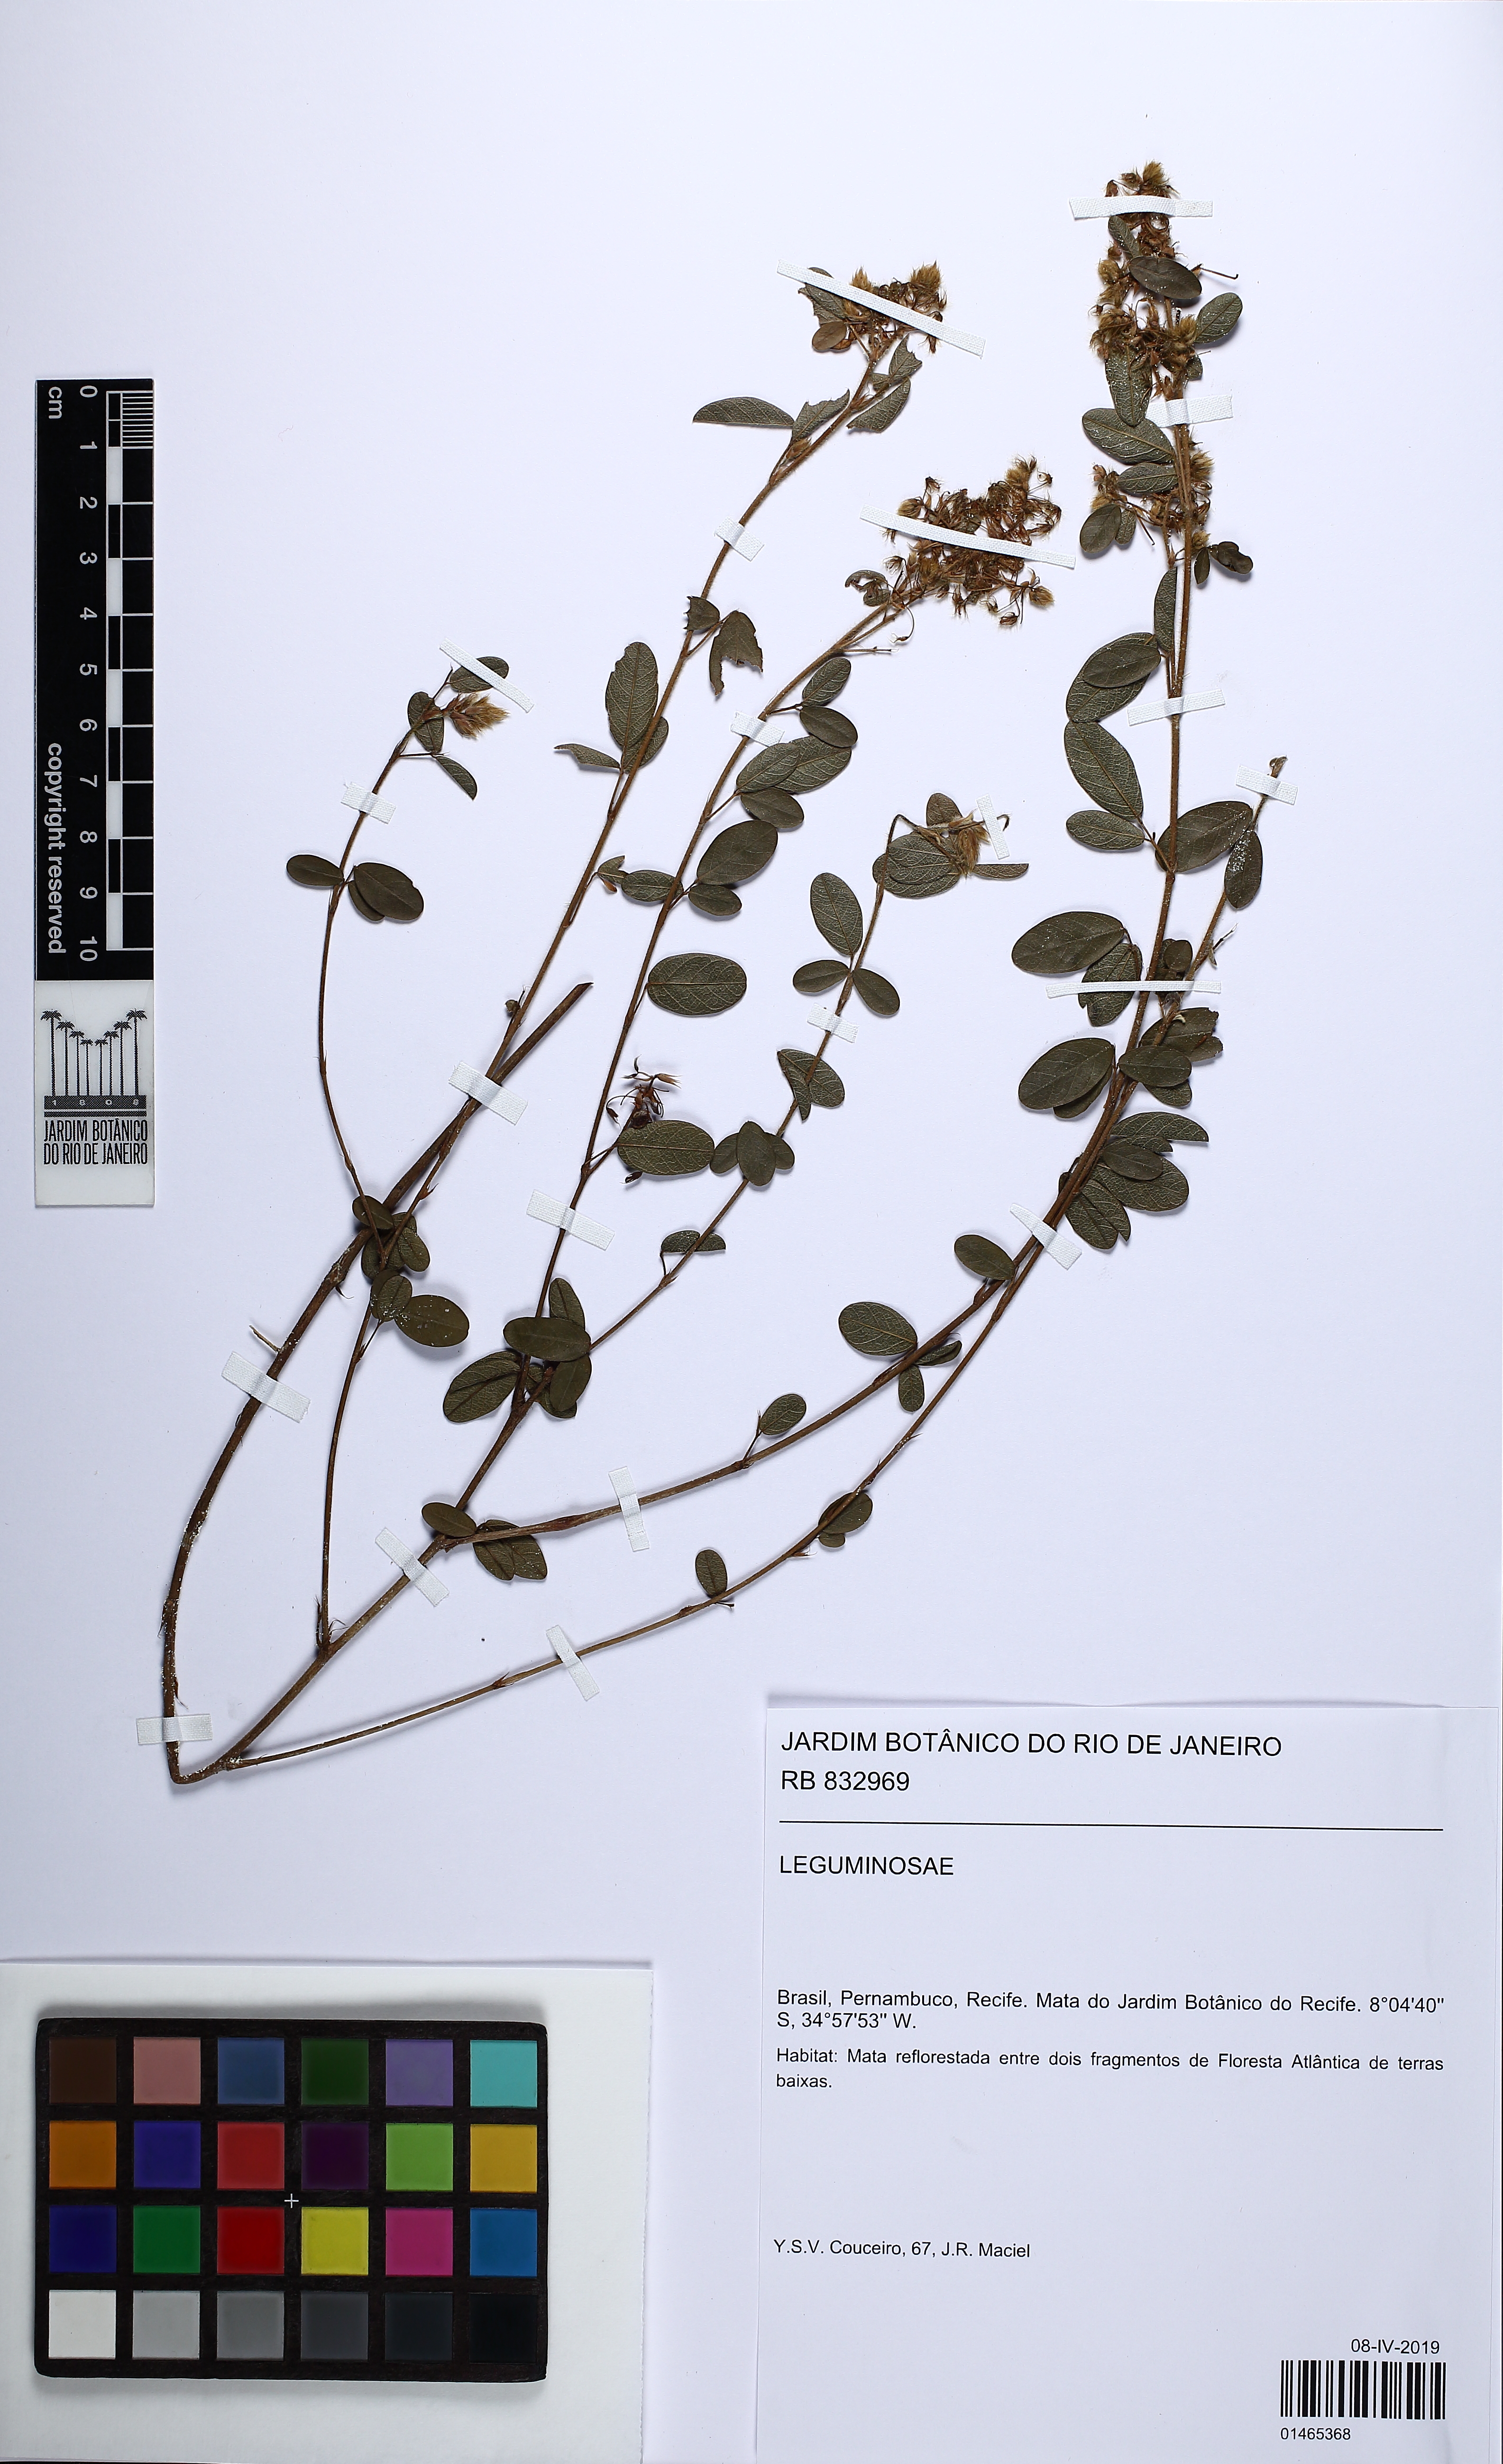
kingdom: Plantae
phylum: Tracheophyta
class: Magnoliopsida
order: Fabales
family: Fabaceae
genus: Grona
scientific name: Grona barbata
